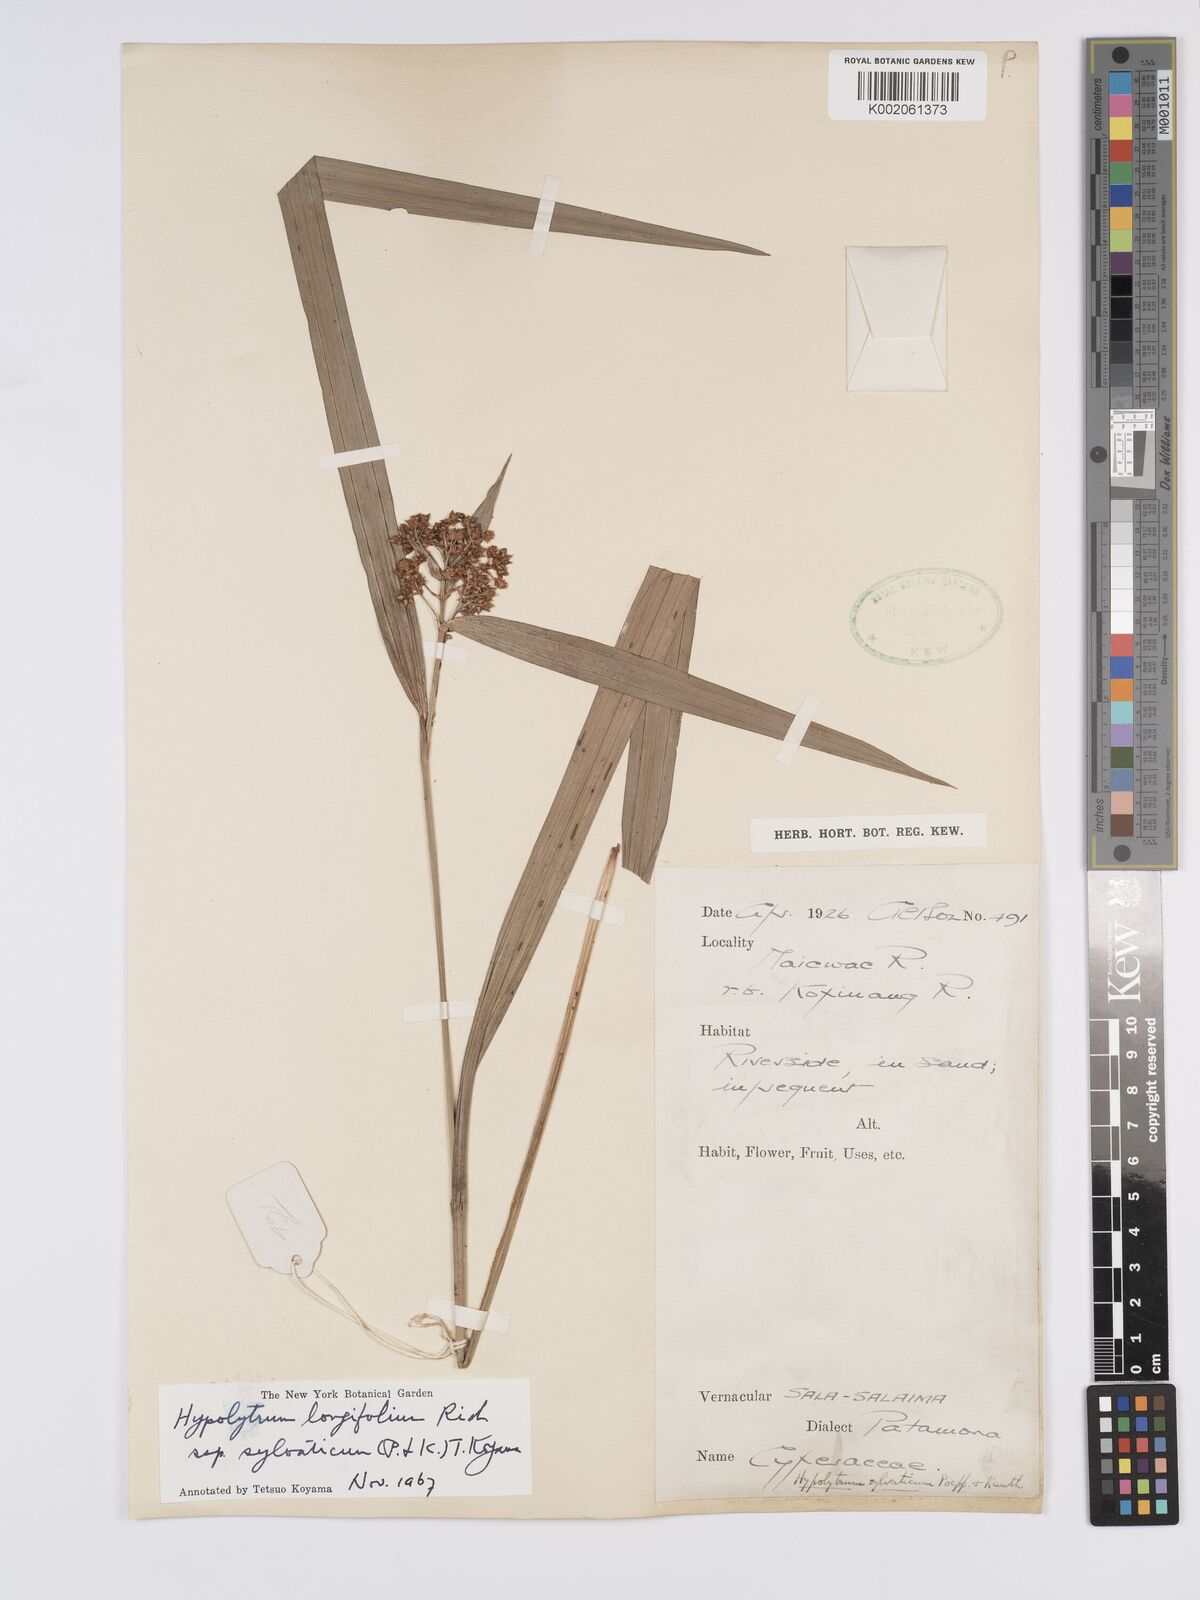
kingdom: Plantae
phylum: Tracheophyta
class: Liliopsida
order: Poales
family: Cyperaceae
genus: Hypolytrum
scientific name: Hypolytrum longifolium
